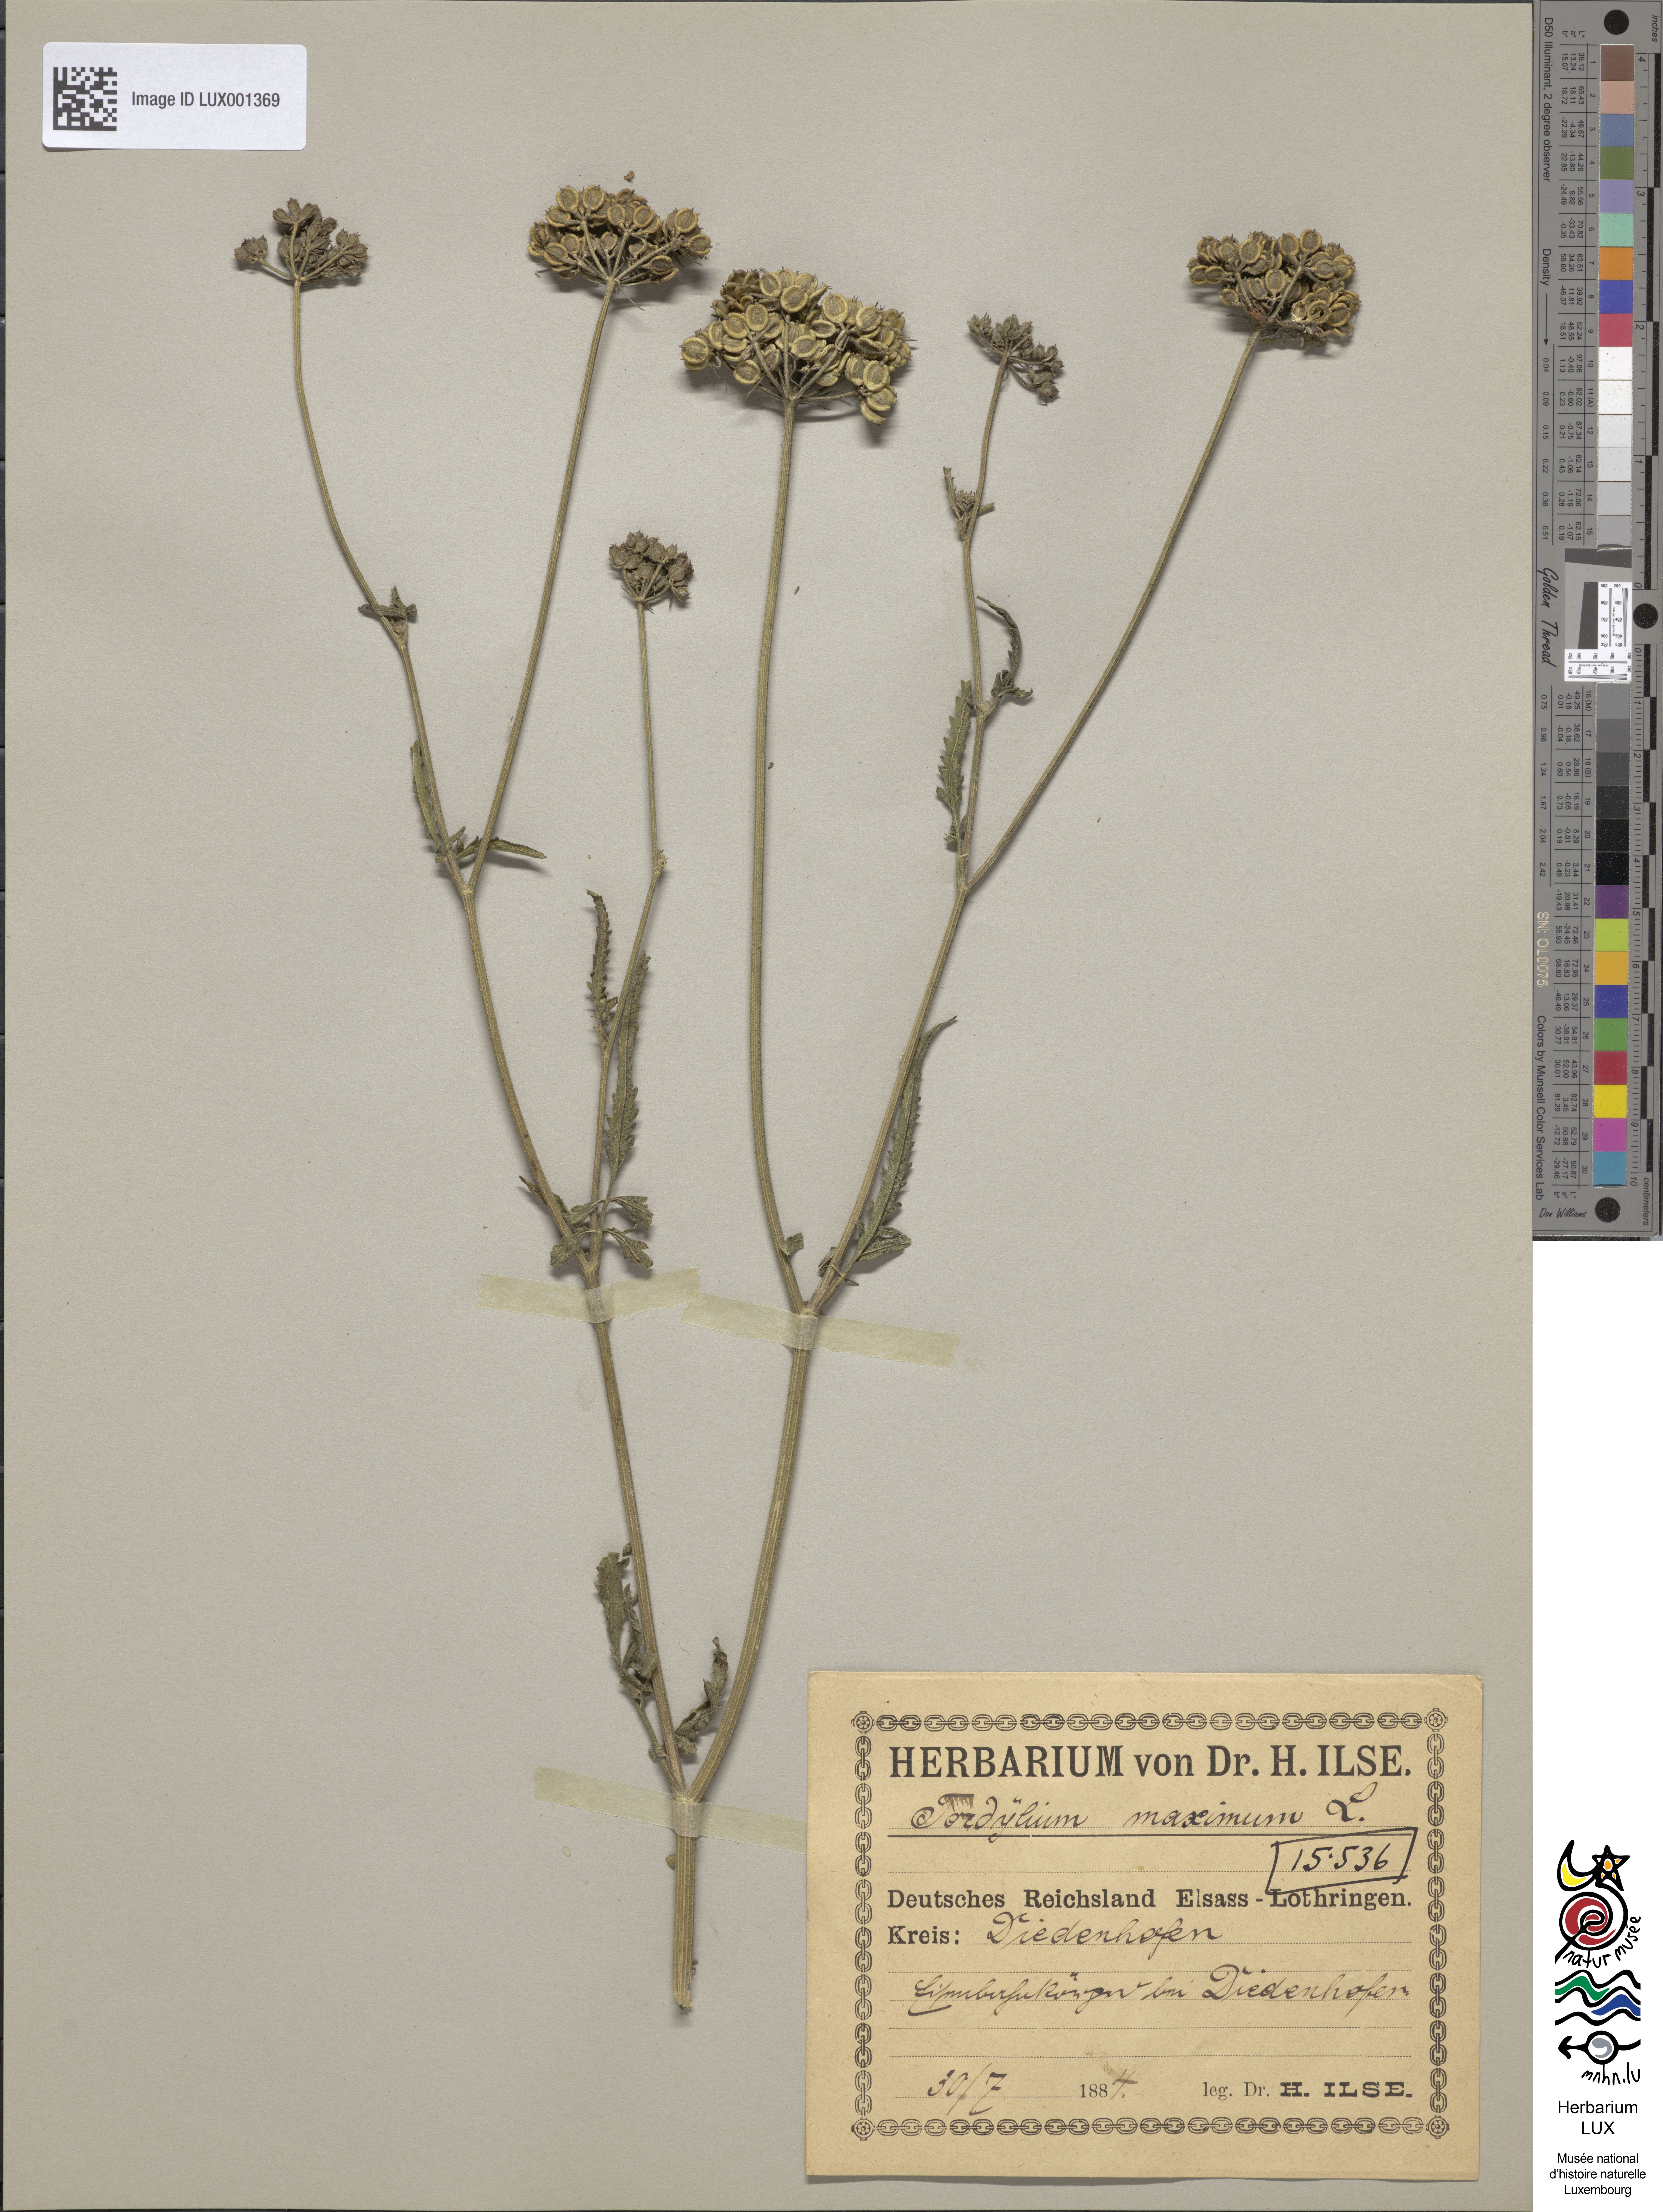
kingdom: Plantae
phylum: Tracheophyta
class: Magnoliopsida
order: Apiales
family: Apiaceae
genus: Tordylium
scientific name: Tordylium maximum
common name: Hartwort
